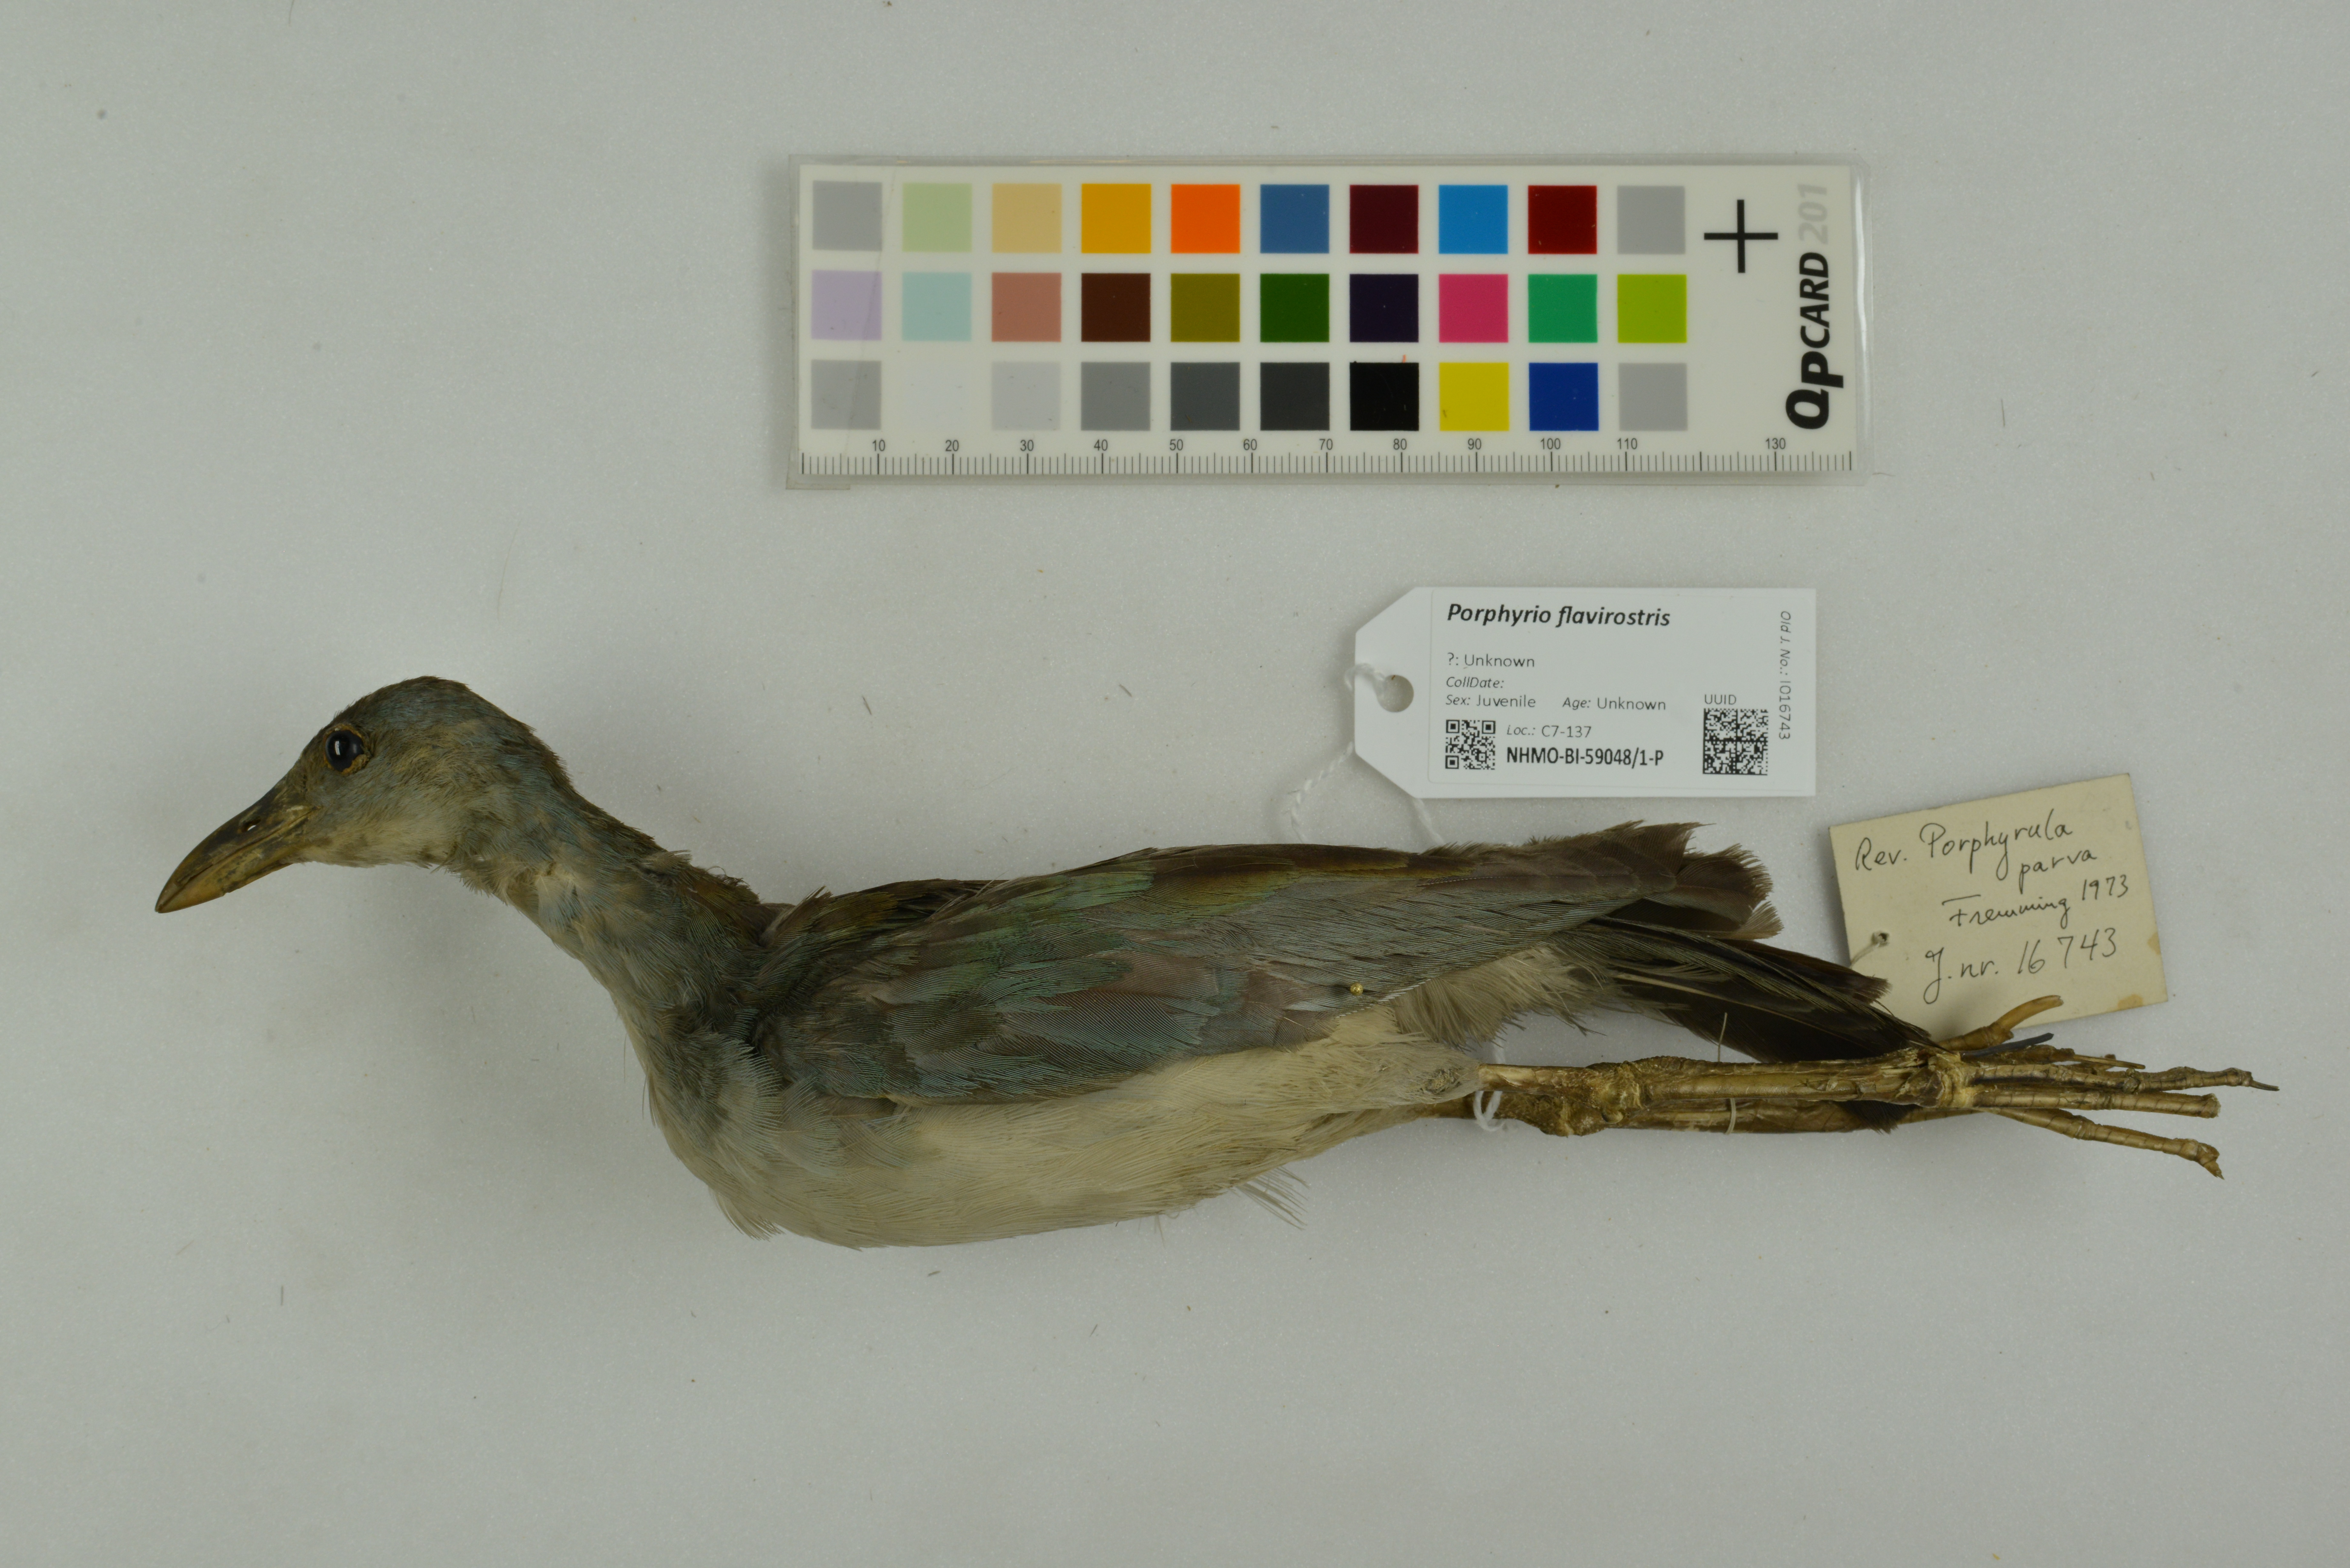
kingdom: Animalia
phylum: Chordata
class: Aves
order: Gruiformes
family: Rallidae
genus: Porphyrio
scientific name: Porphyrio flavirostris
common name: Azure gallinule
